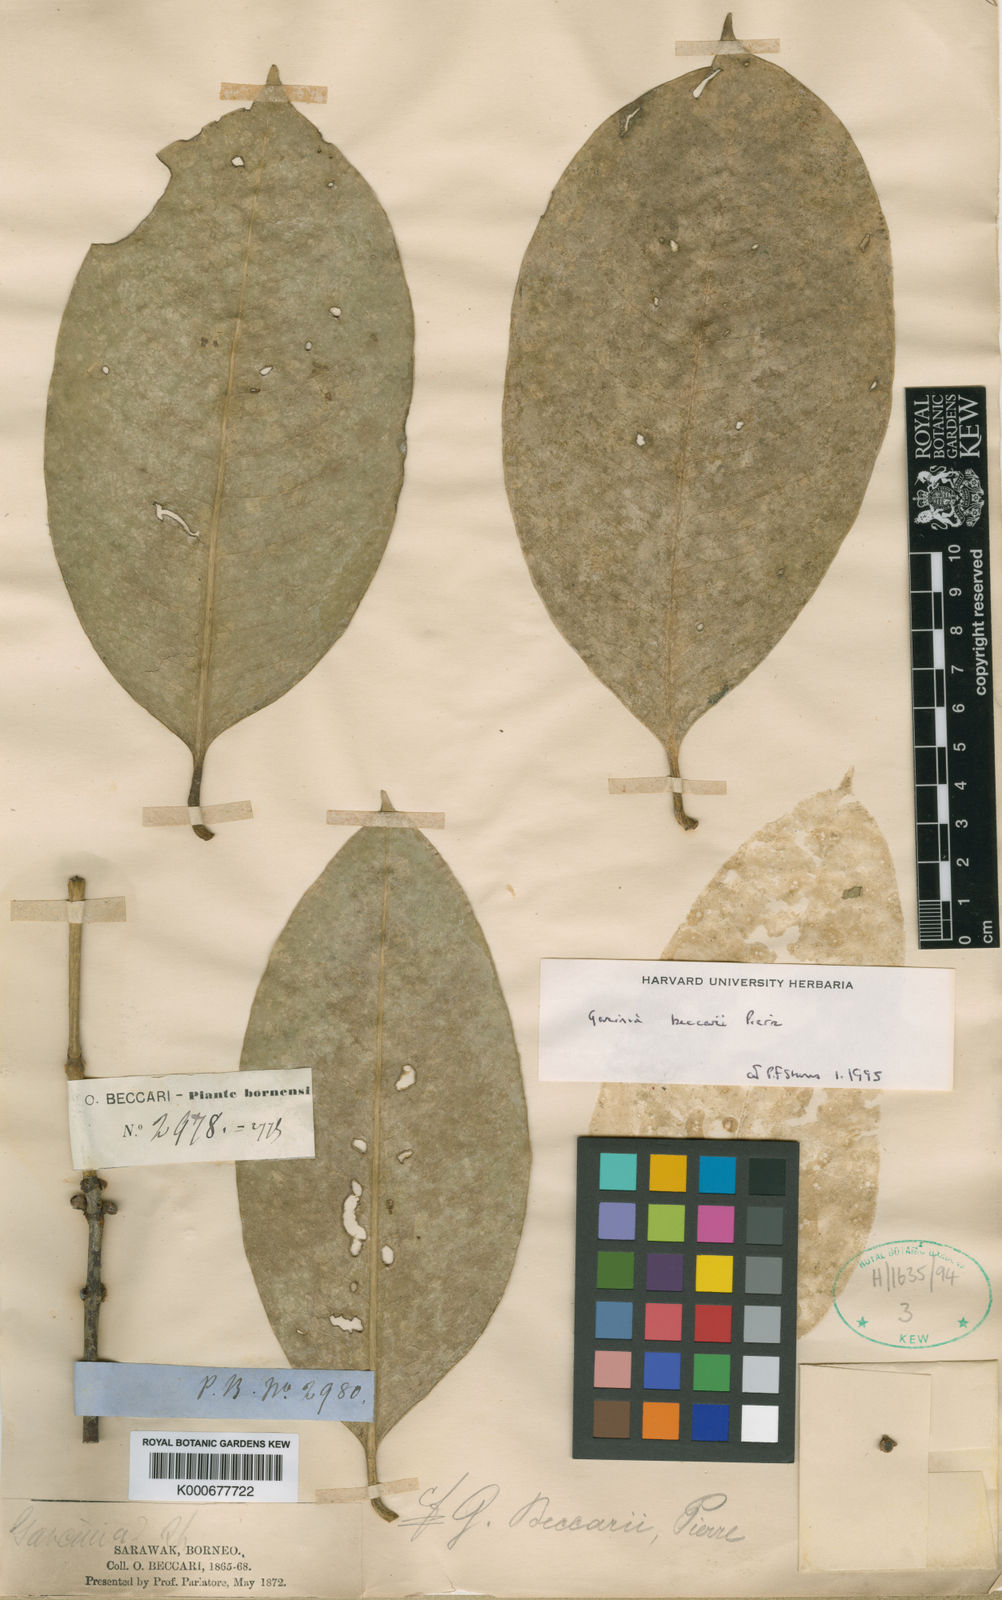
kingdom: Plantae
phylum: Tracheophyta
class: Magnoliopsida
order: Malpighiales
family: Clusiaceae
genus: Garcinia
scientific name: Garcinia beccarii
